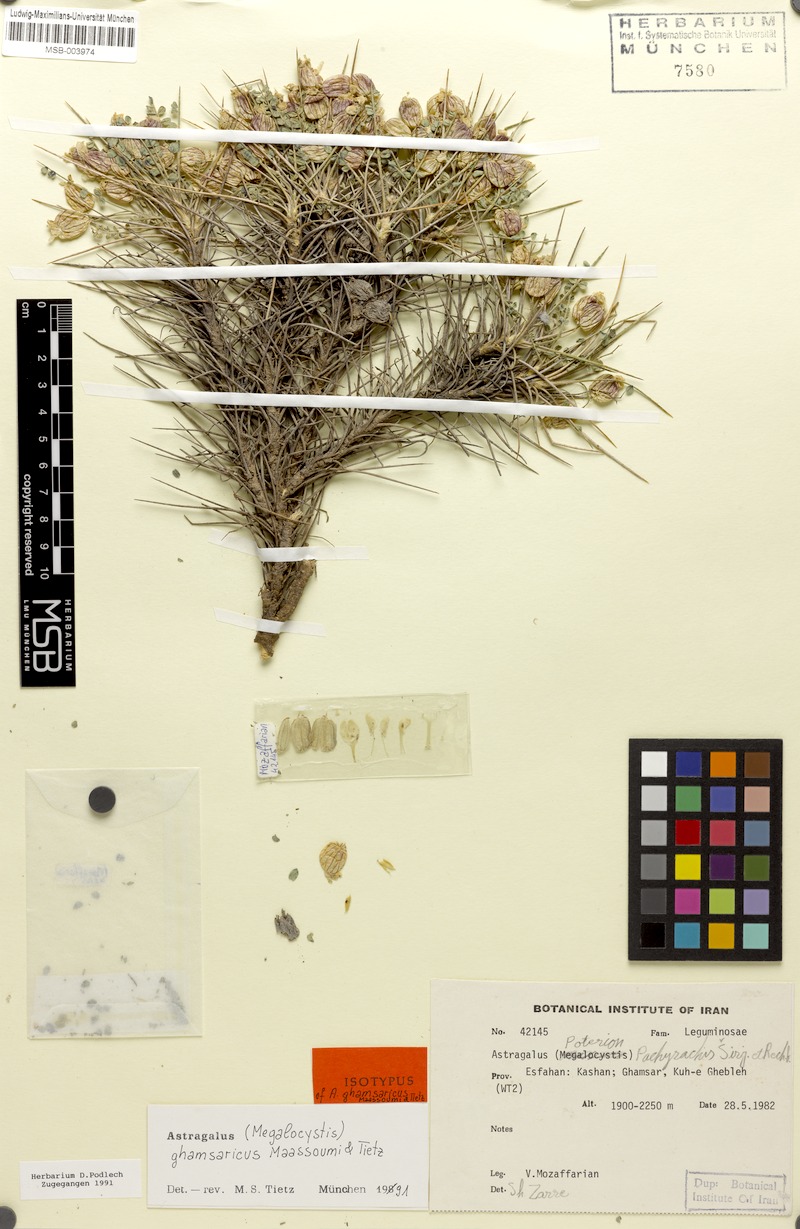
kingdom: Plantae
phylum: Tracheophyta
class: Magnoliopsida
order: Fabales
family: Fabaceae
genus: Astragalus
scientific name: Astragalus eriostomus
